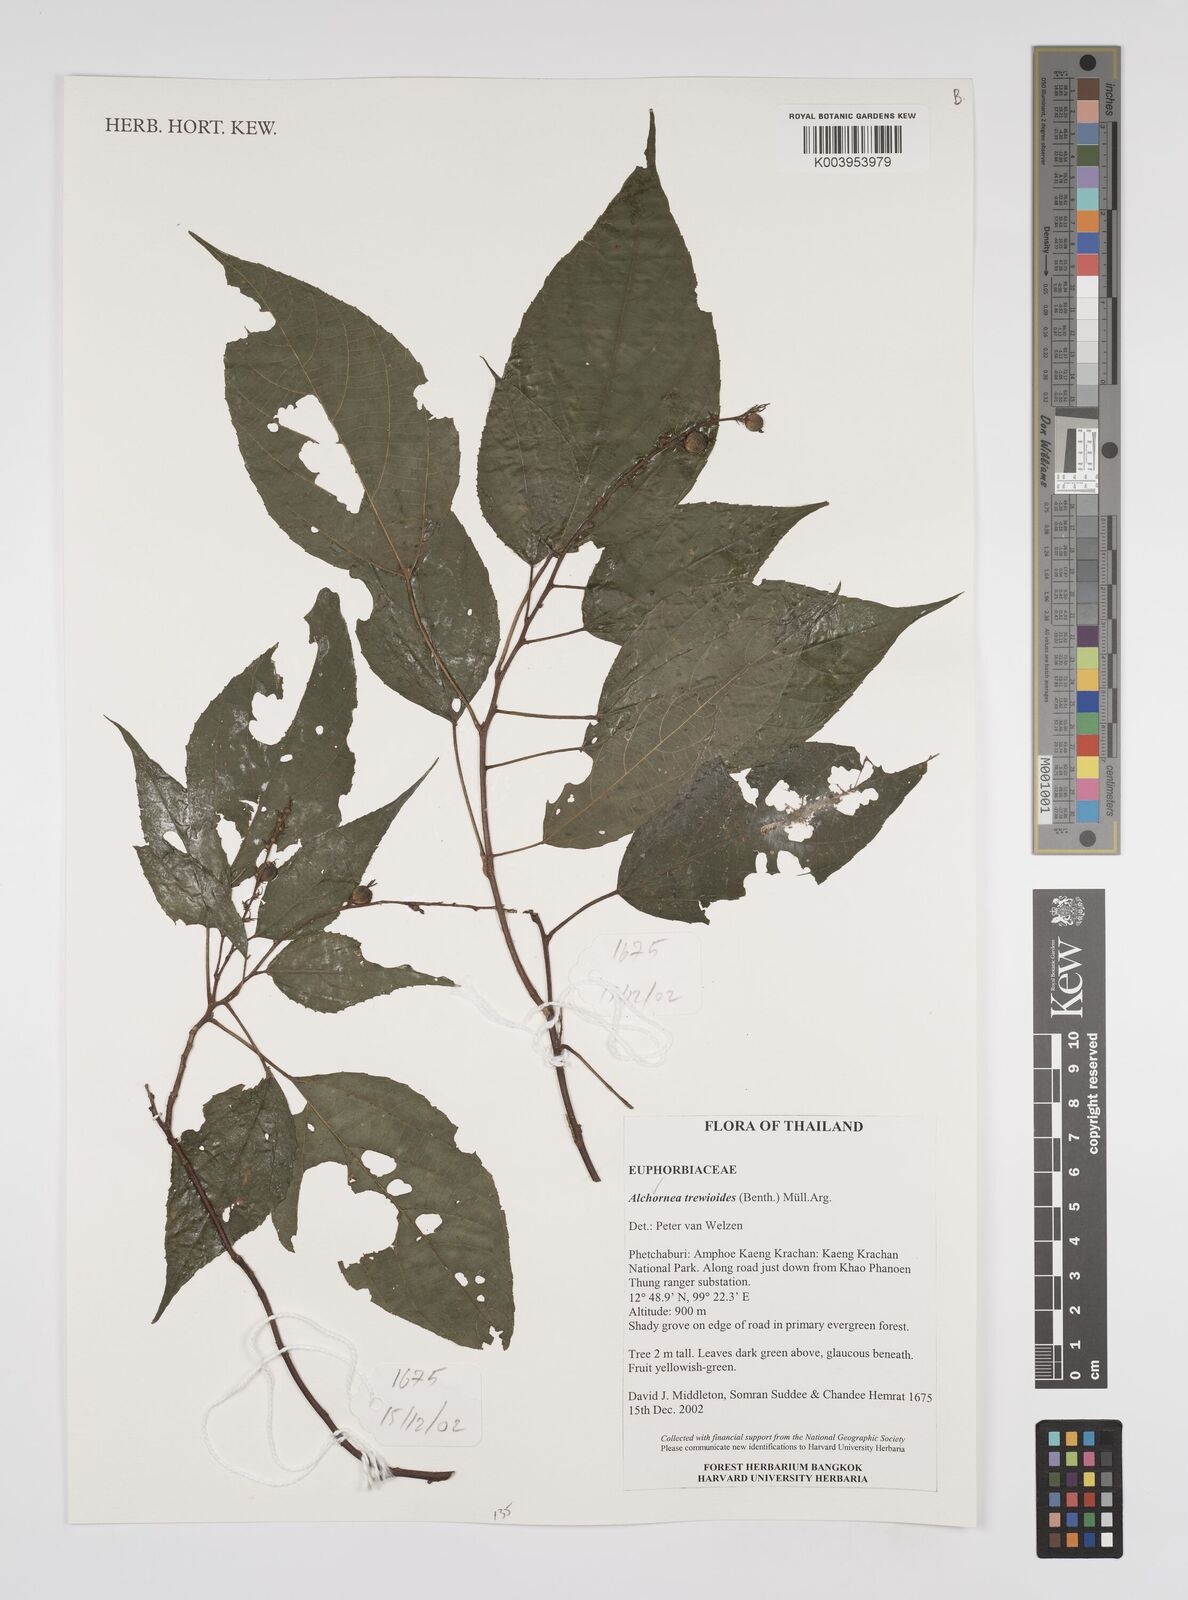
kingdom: Plantae
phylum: Tracheophyta
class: Magnoliopsida
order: Malpighiales
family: Euphorbiaceae
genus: Alchornea
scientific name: Alchornea trewioides
